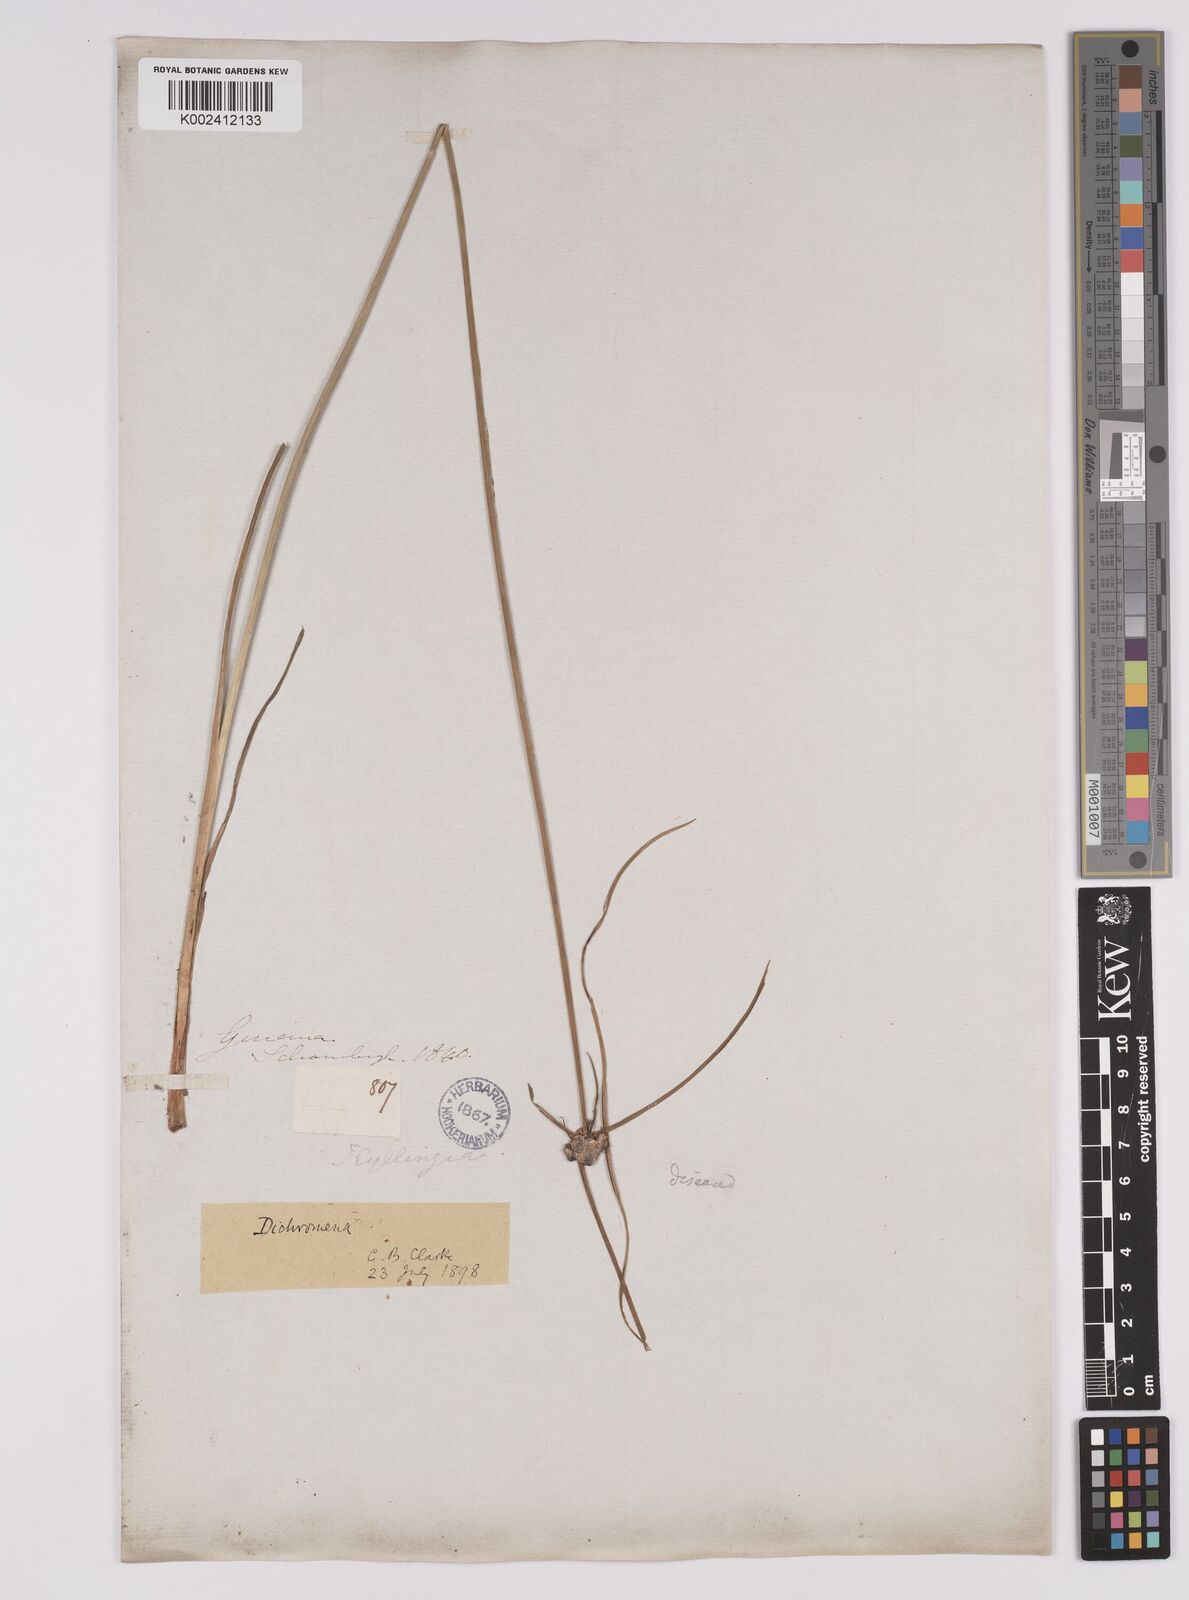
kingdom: Plantae
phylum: Tracheophyta
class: Liliopsida
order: Poales
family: Cyperaceae
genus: Rhynchospora
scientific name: Rhynchospora pura
